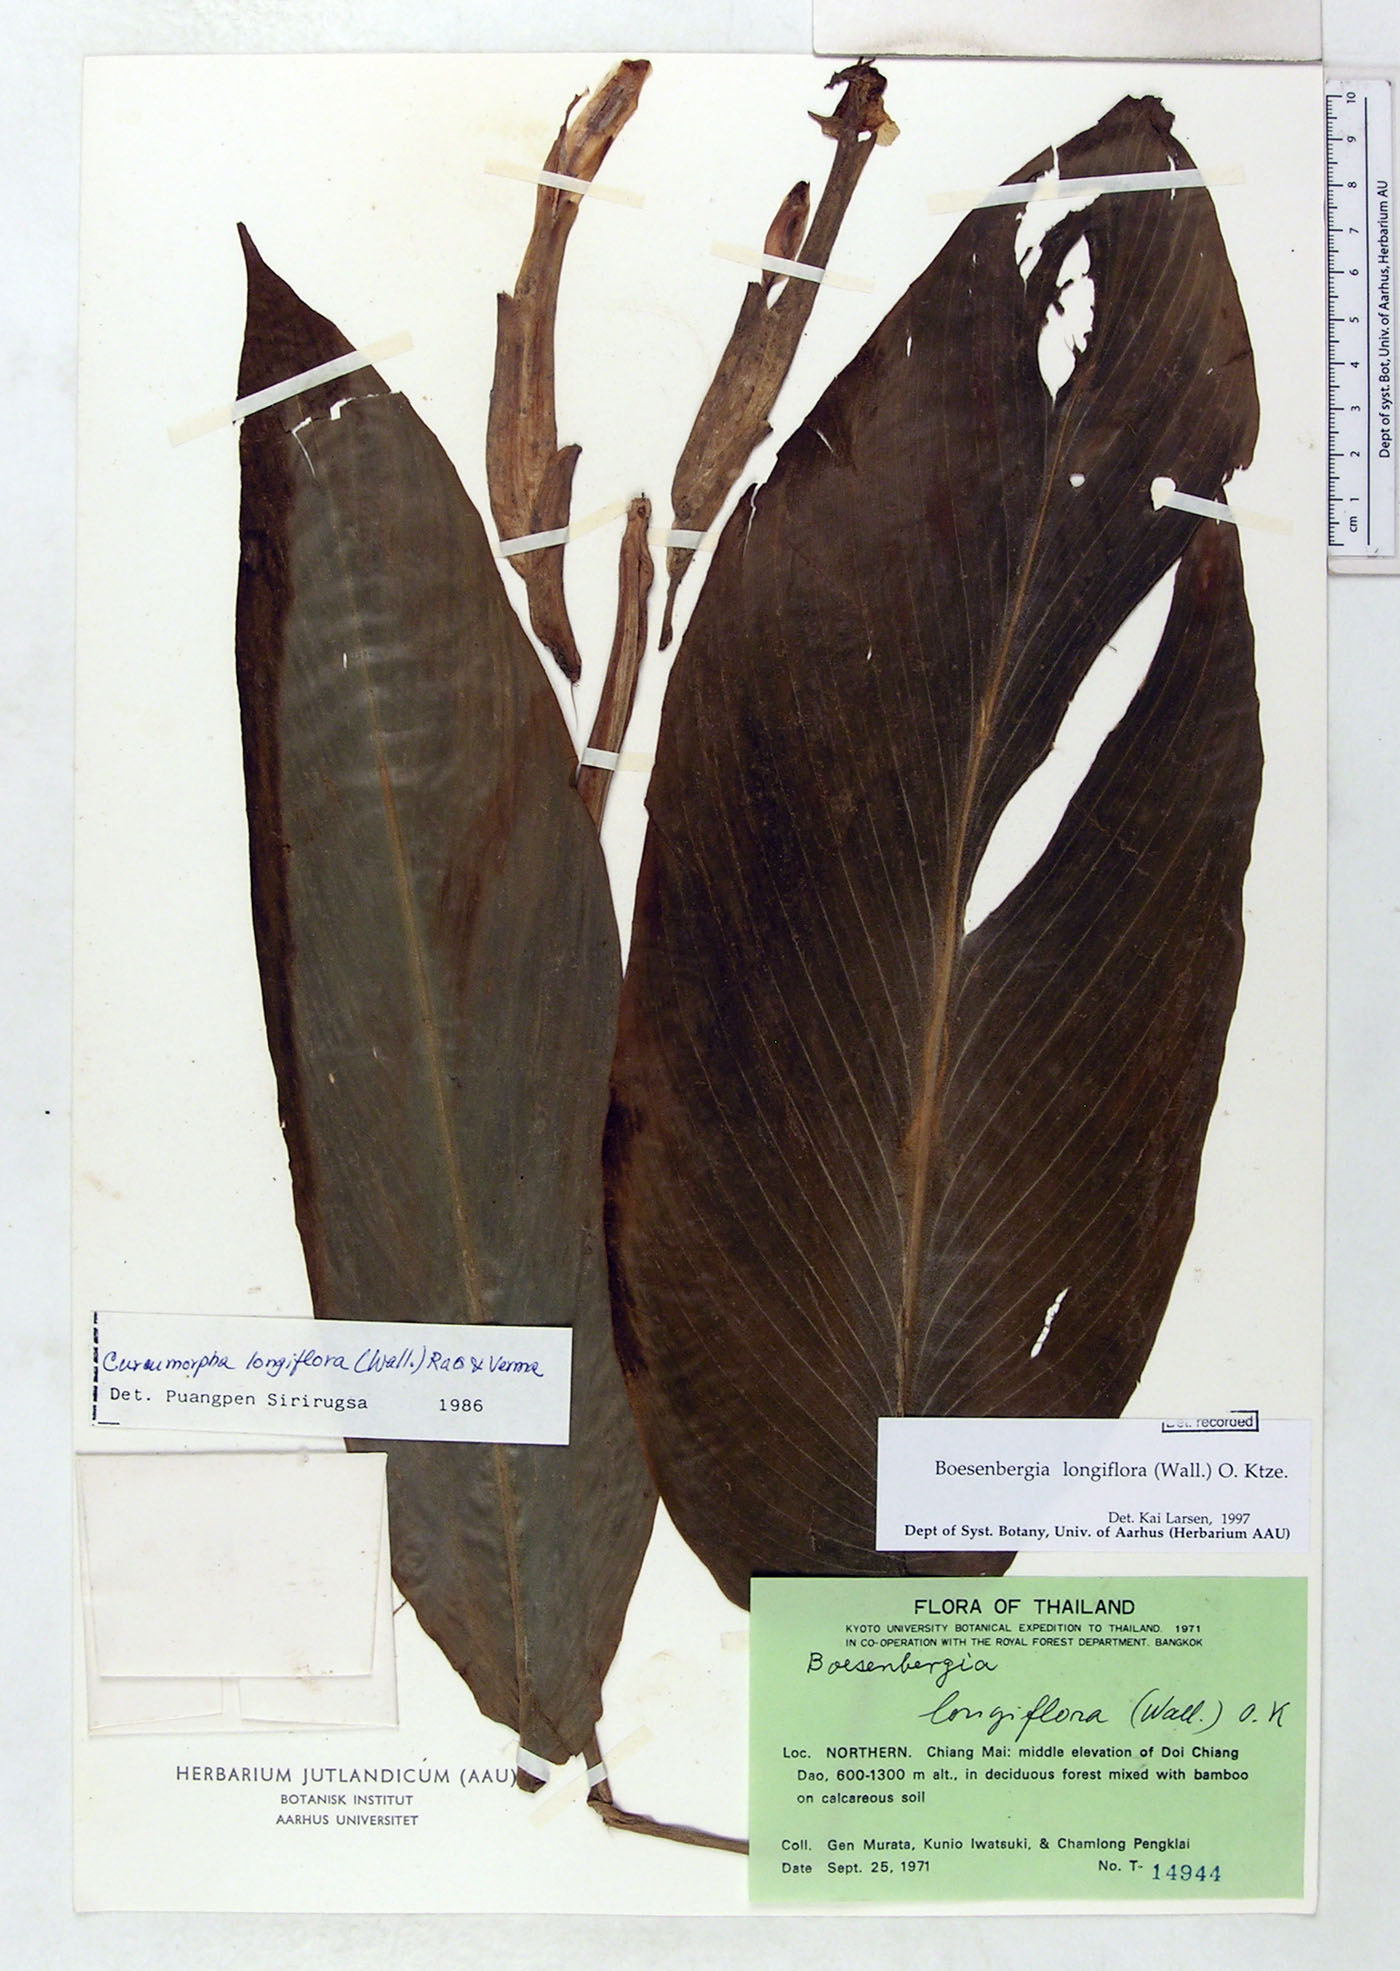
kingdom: Plantae
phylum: Tracheophyta
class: Liliopsida
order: Zingiberales
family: Zingiberaceae
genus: Boesenbergia
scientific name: Boesenbergia longiflora
